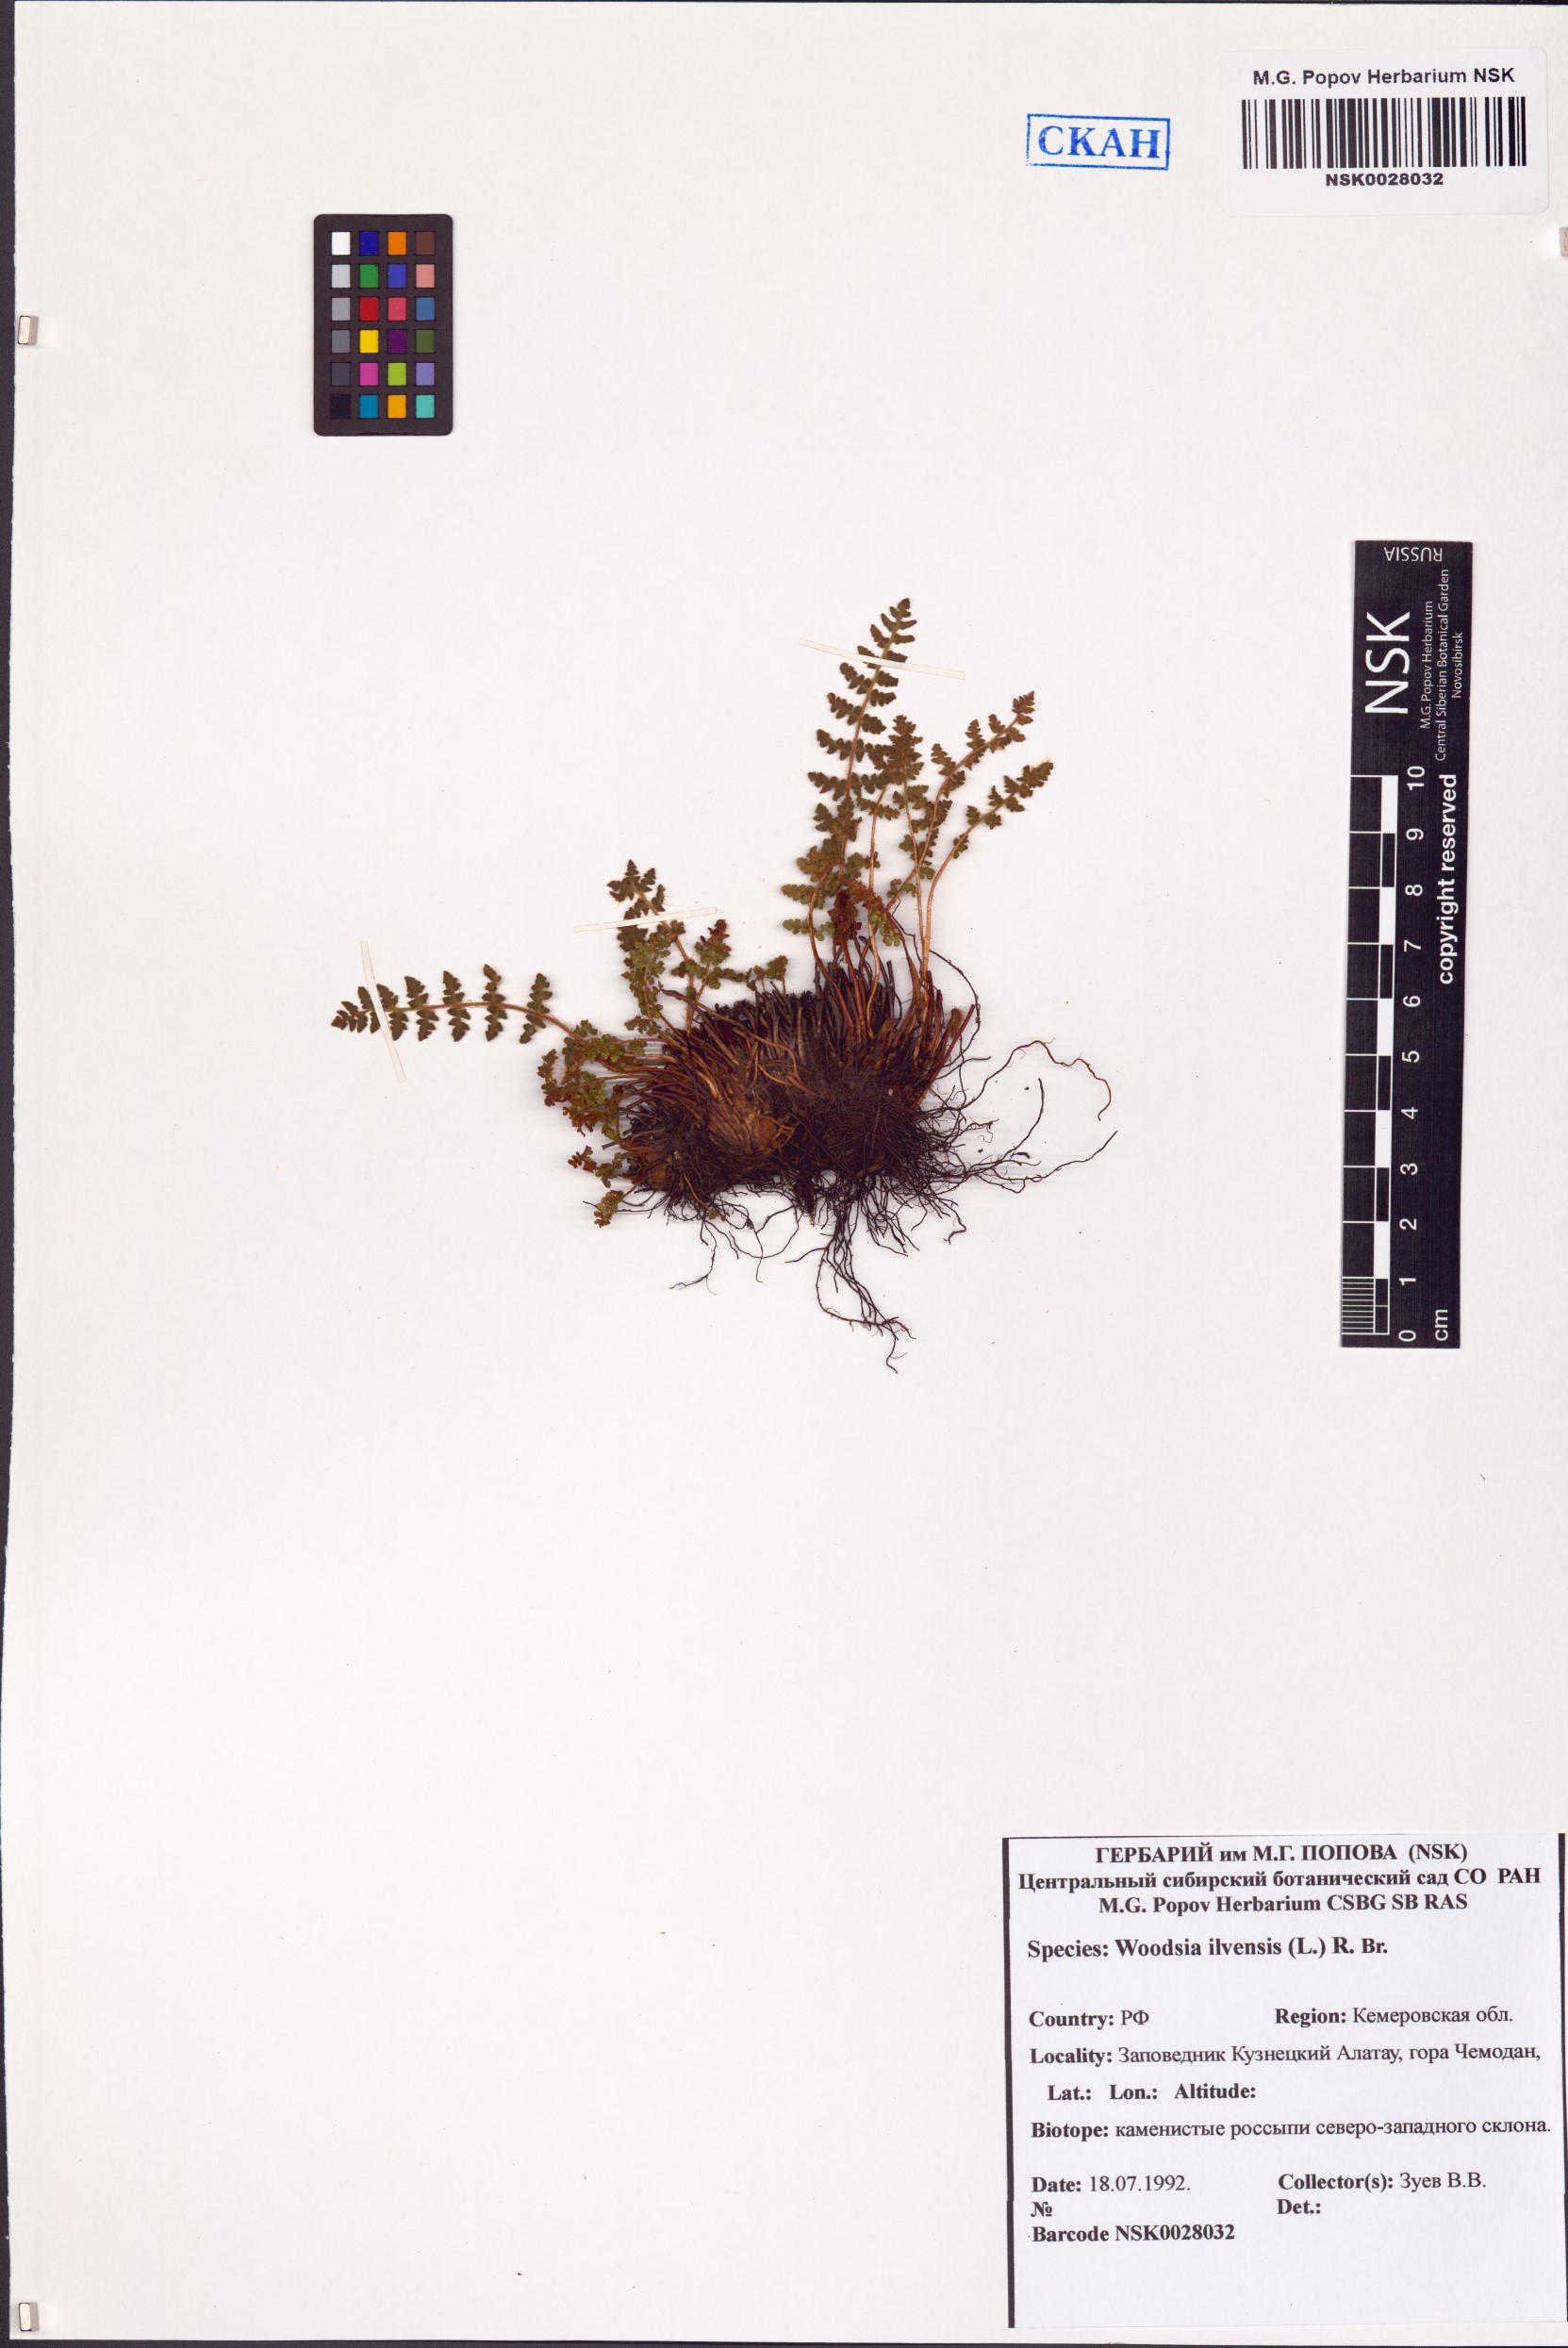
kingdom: Plantae
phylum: Tracheophyta
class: Polypodiopsida
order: Polypodiales
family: Woodsiaceae
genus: Woodsia
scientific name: Woodsia ilvensis
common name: Fragrant woodsia
